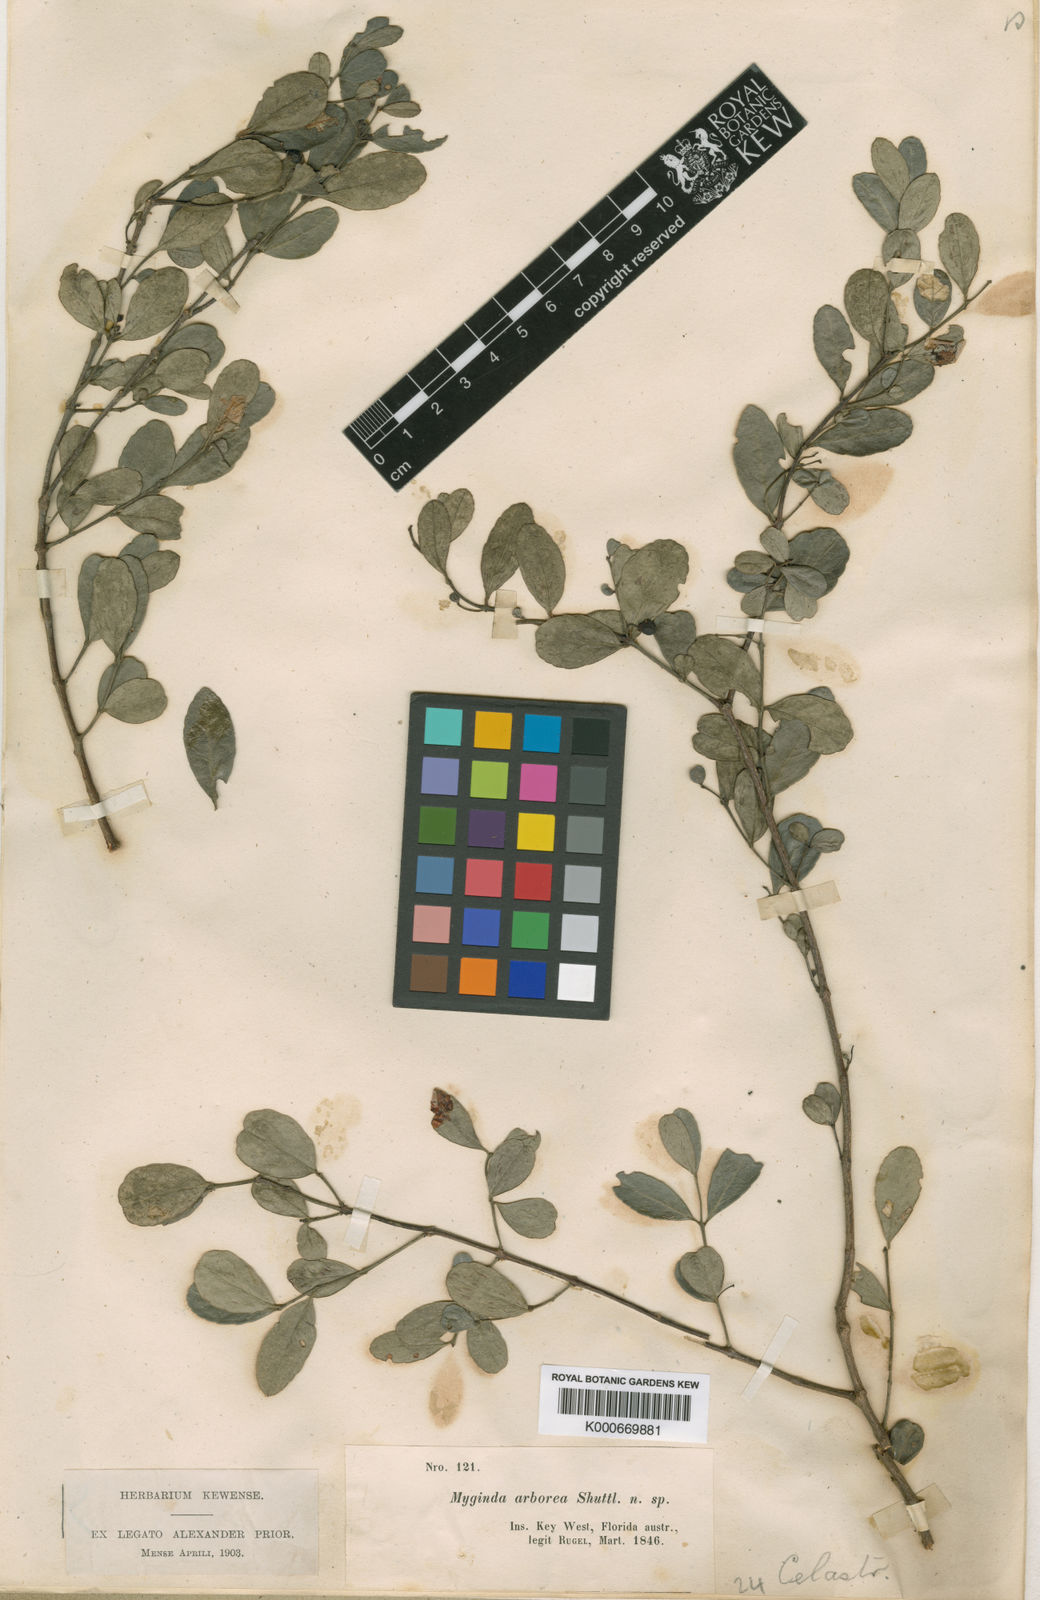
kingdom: Plantae
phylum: Tracheophyta
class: Magnoliopsida
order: Celastrales
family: Celastraceae
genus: Crossopetalum
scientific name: Crossopetalum
